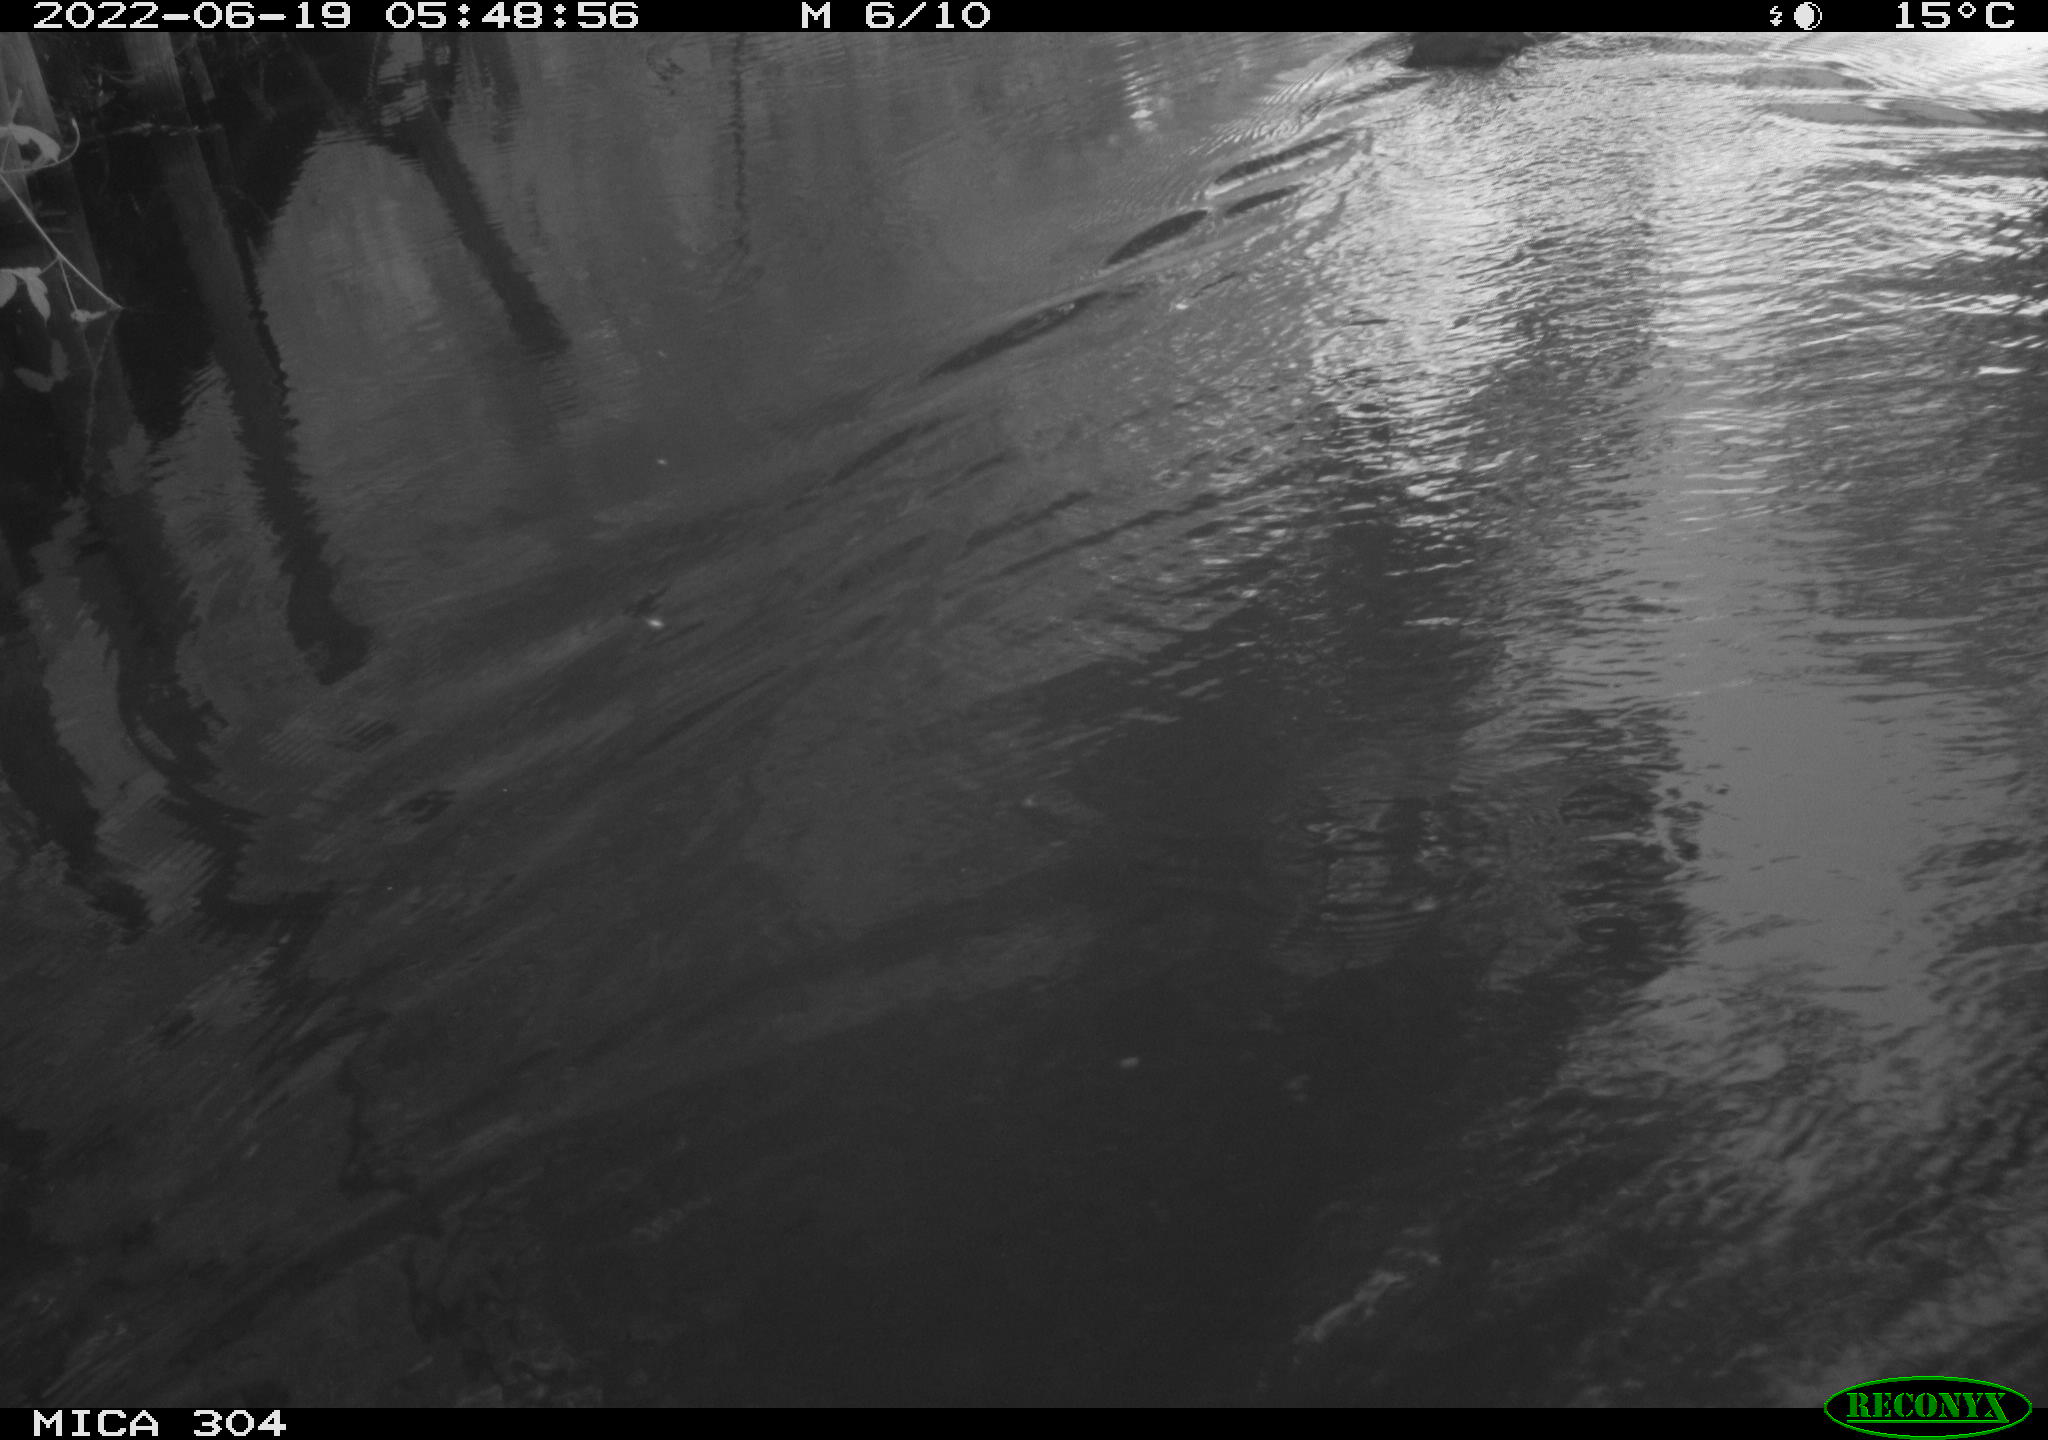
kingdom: Animalia
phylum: Chordata
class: Aves
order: Gruiformes
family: Rallidae
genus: Fulica
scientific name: Fulica atra
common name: Eurasian coot
